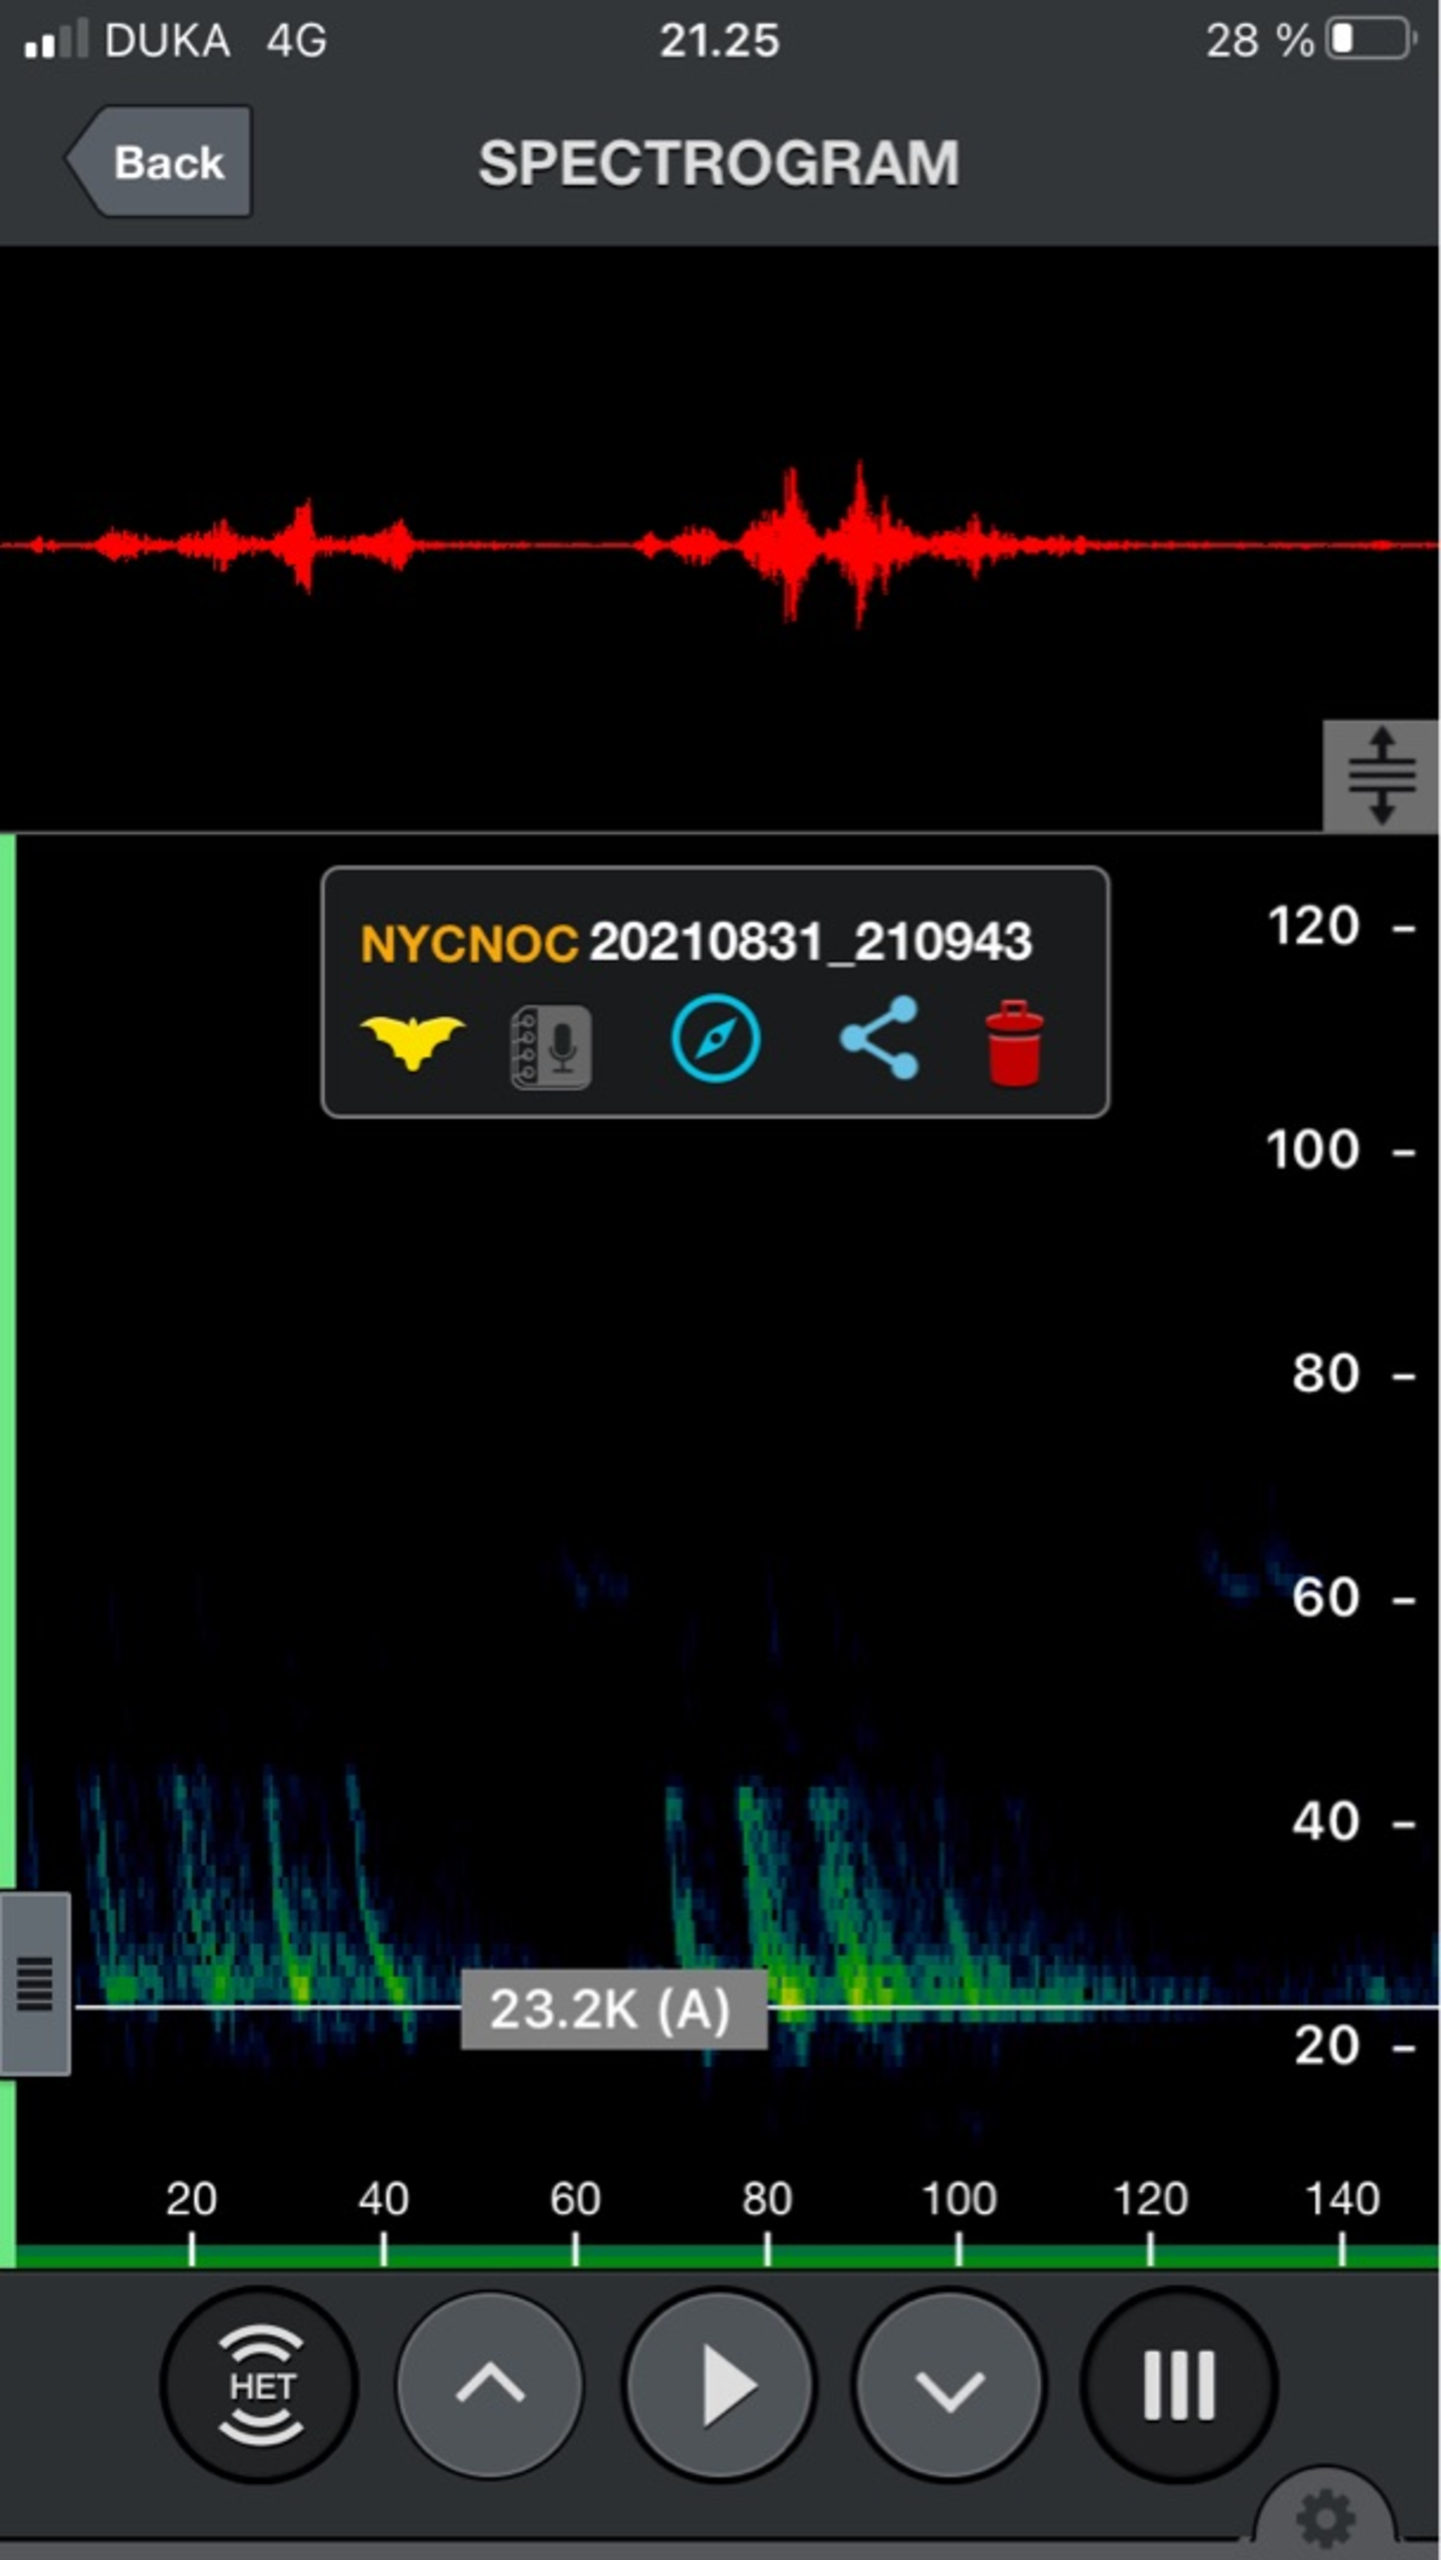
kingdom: Animalia
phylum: Chordata
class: Mammalia
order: Chiroptera
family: Vespertilionidae
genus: Nyctalus
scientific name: Nyctalus noctula
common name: Brunflagermus
